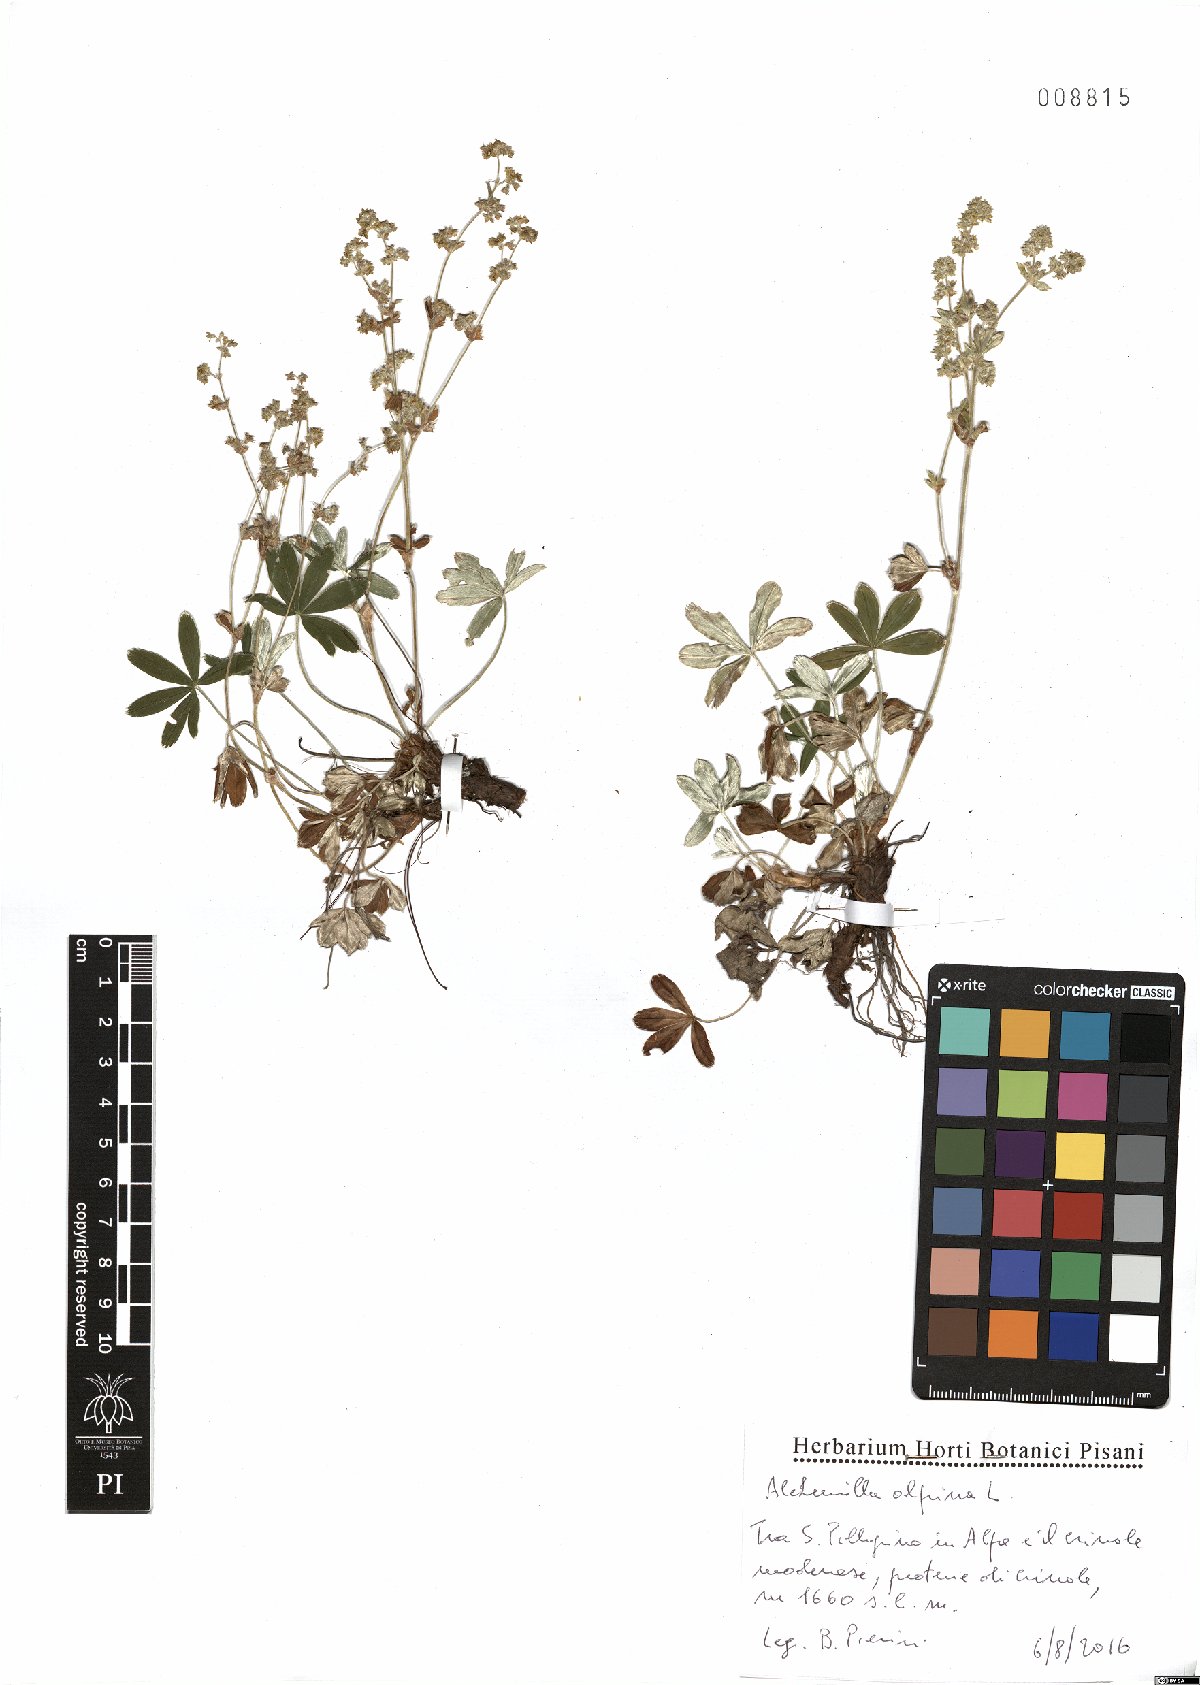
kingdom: Plantae
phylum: Tracheophyta
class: Magnoliopsida
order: Rosales
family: Rosaceae
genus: Alchemilla
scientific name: Alchemilla alpina
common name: Alpine lady's-mantle
